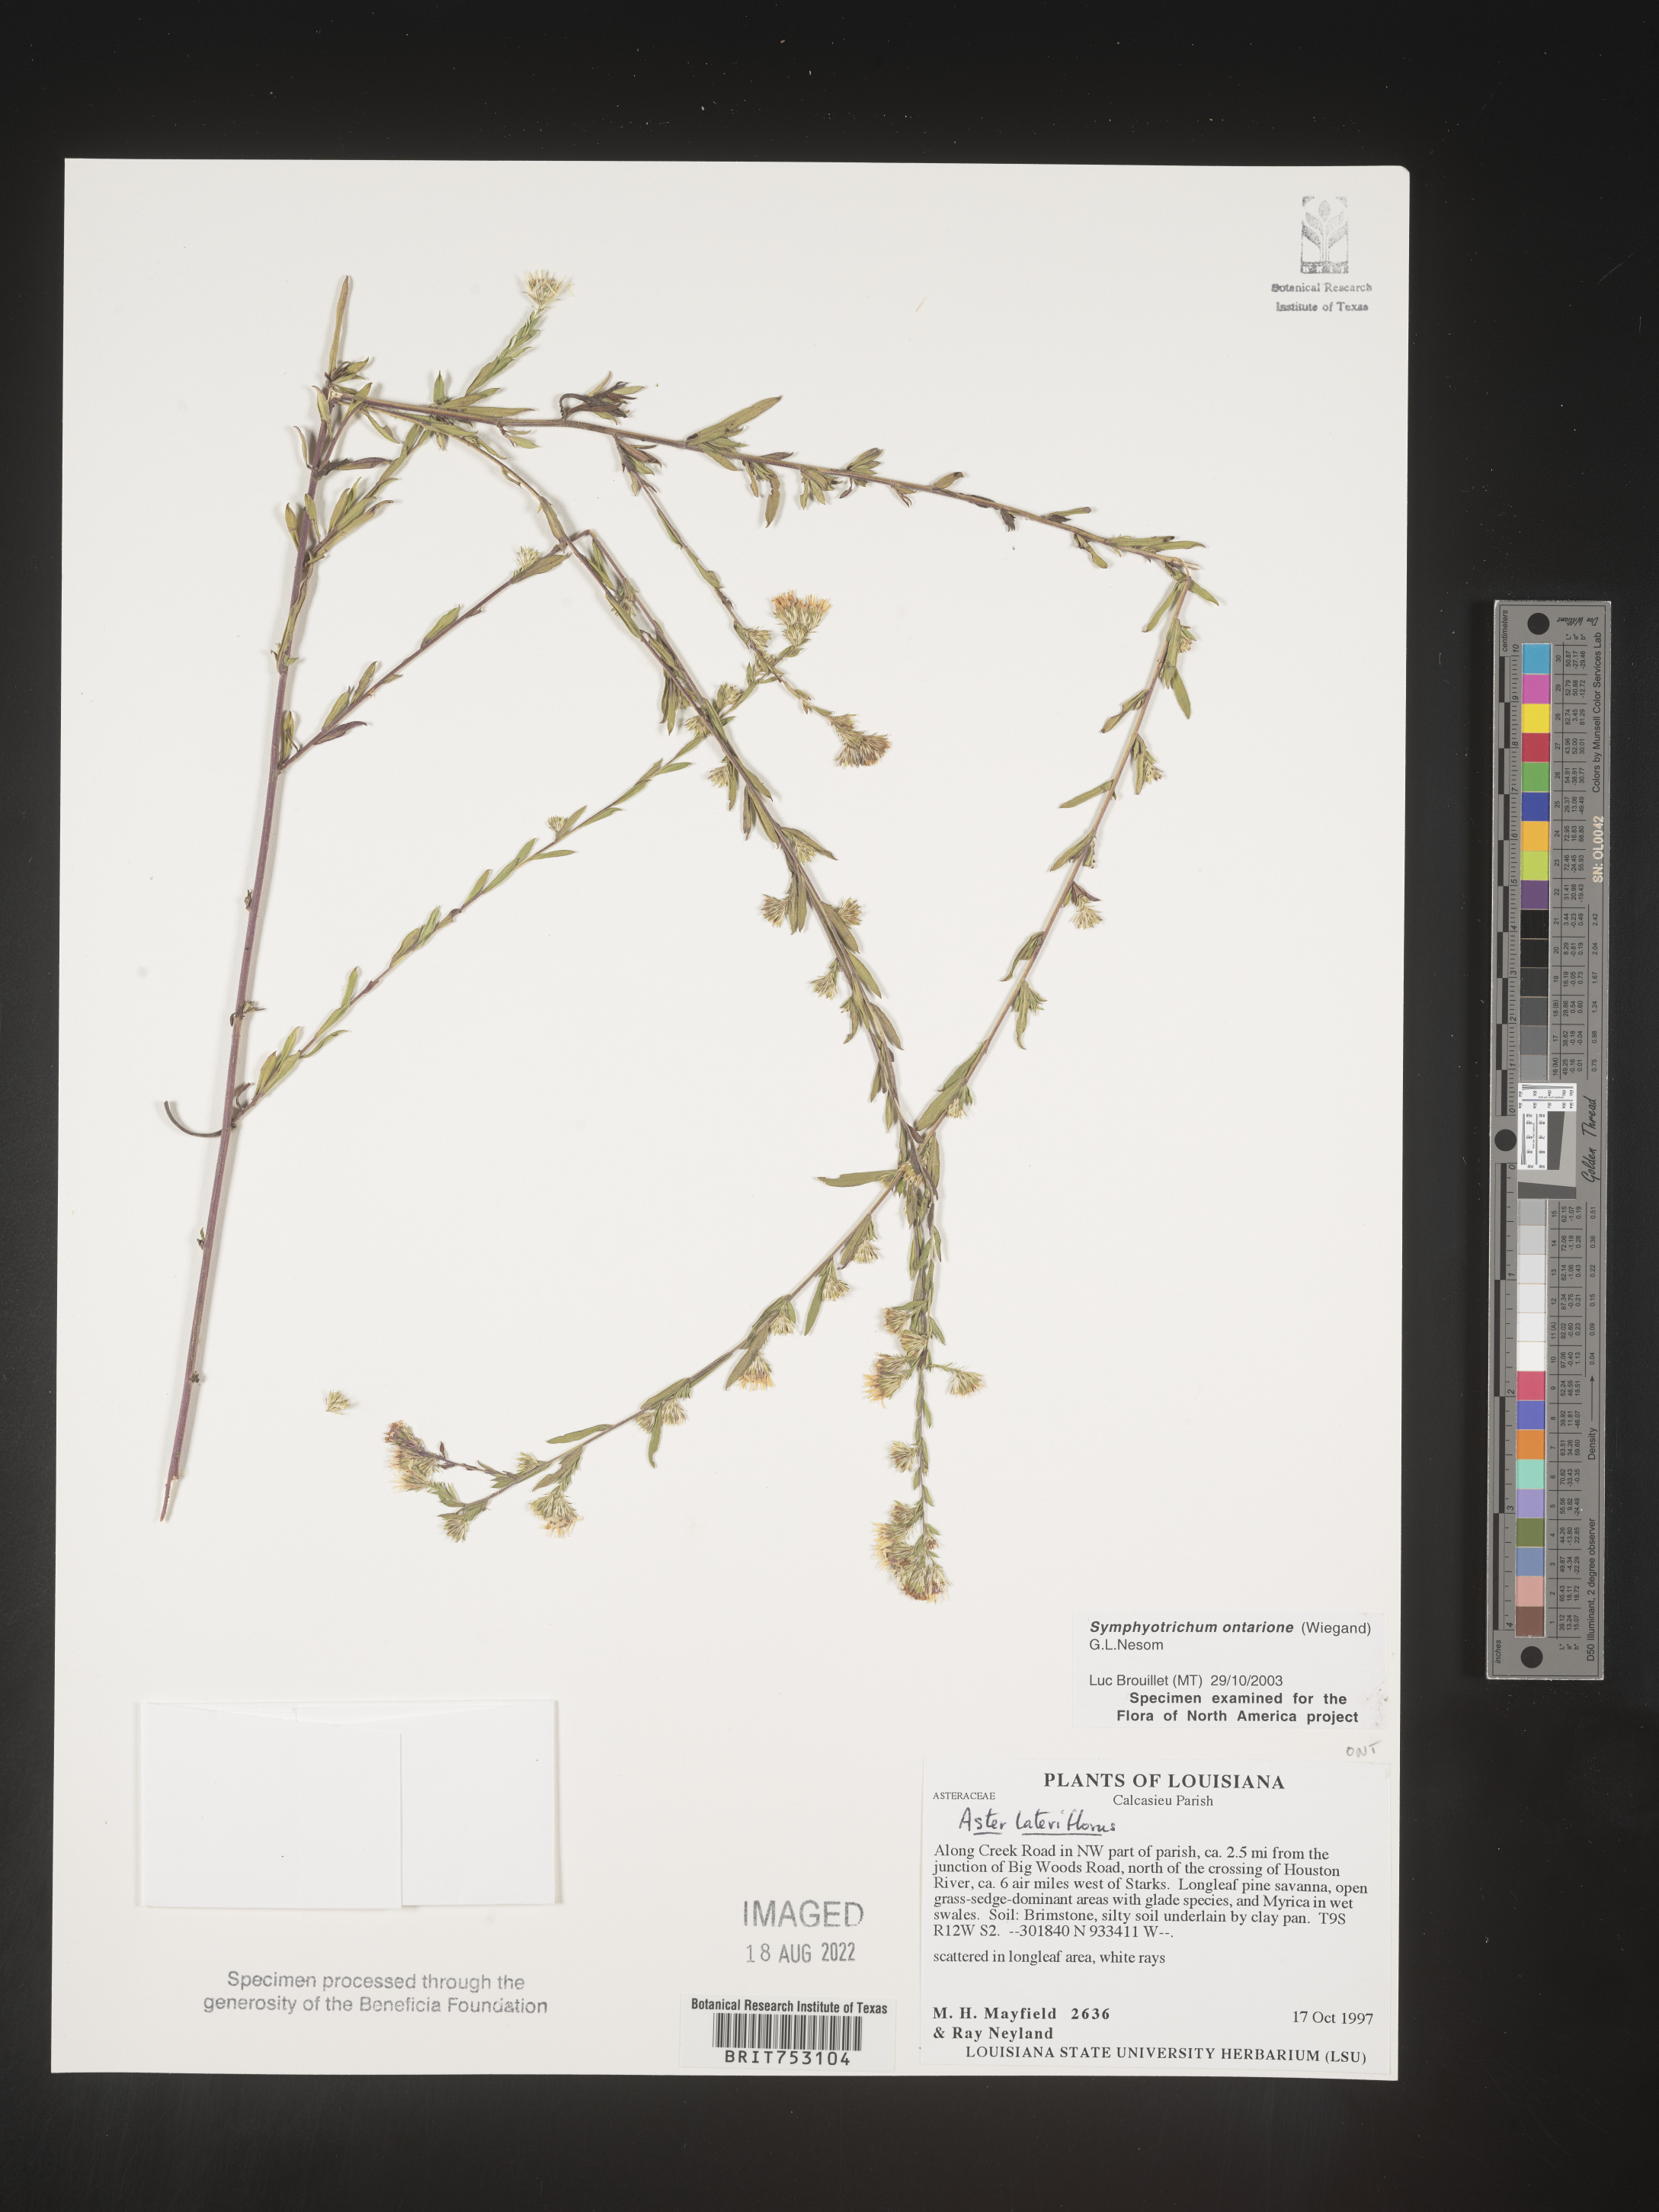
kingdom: Plantae
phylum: Tracheophyta
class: Magnoliopsida
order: Asterales
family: Asteraceae
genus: Symphyotrichum
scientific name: Symphyotrichum ontarionis
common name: Bottomland aster
